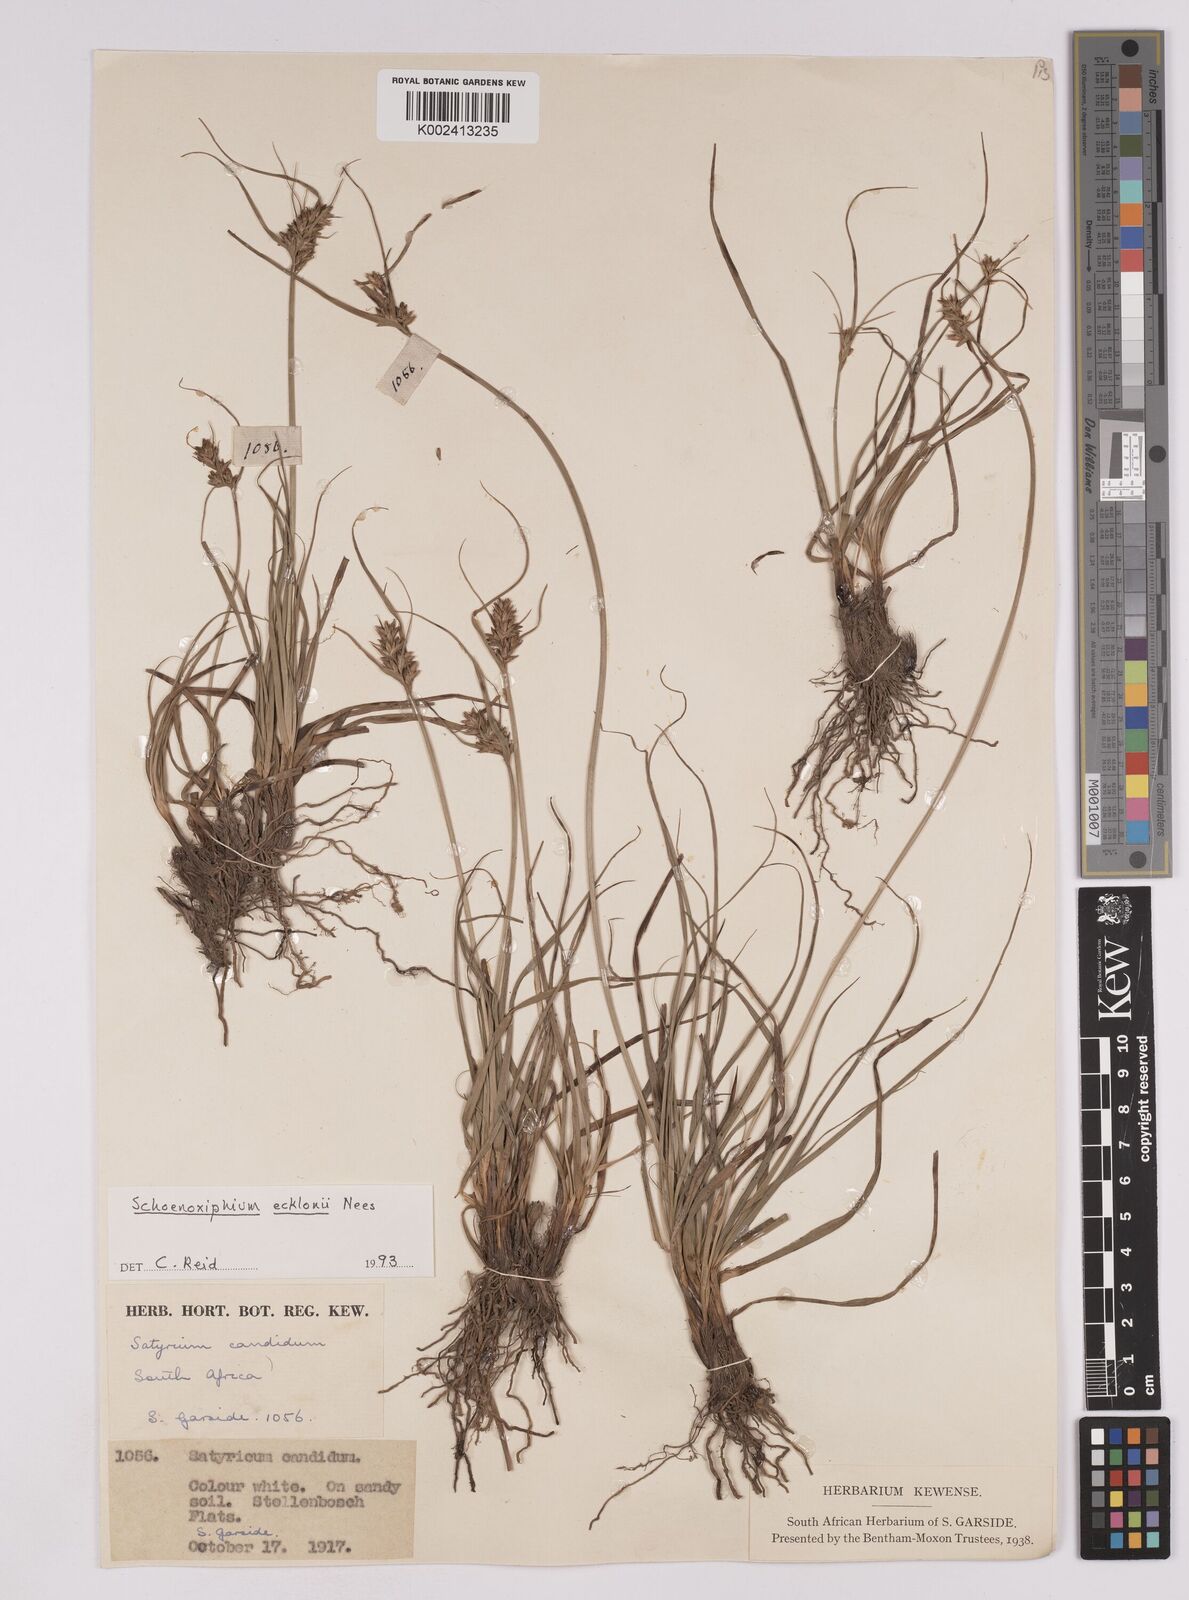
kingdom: Plantae
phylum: Tracheophyta
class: Liliopsida
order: Poales
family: Cyperaceae
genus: Carex
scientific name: Carex capensis
